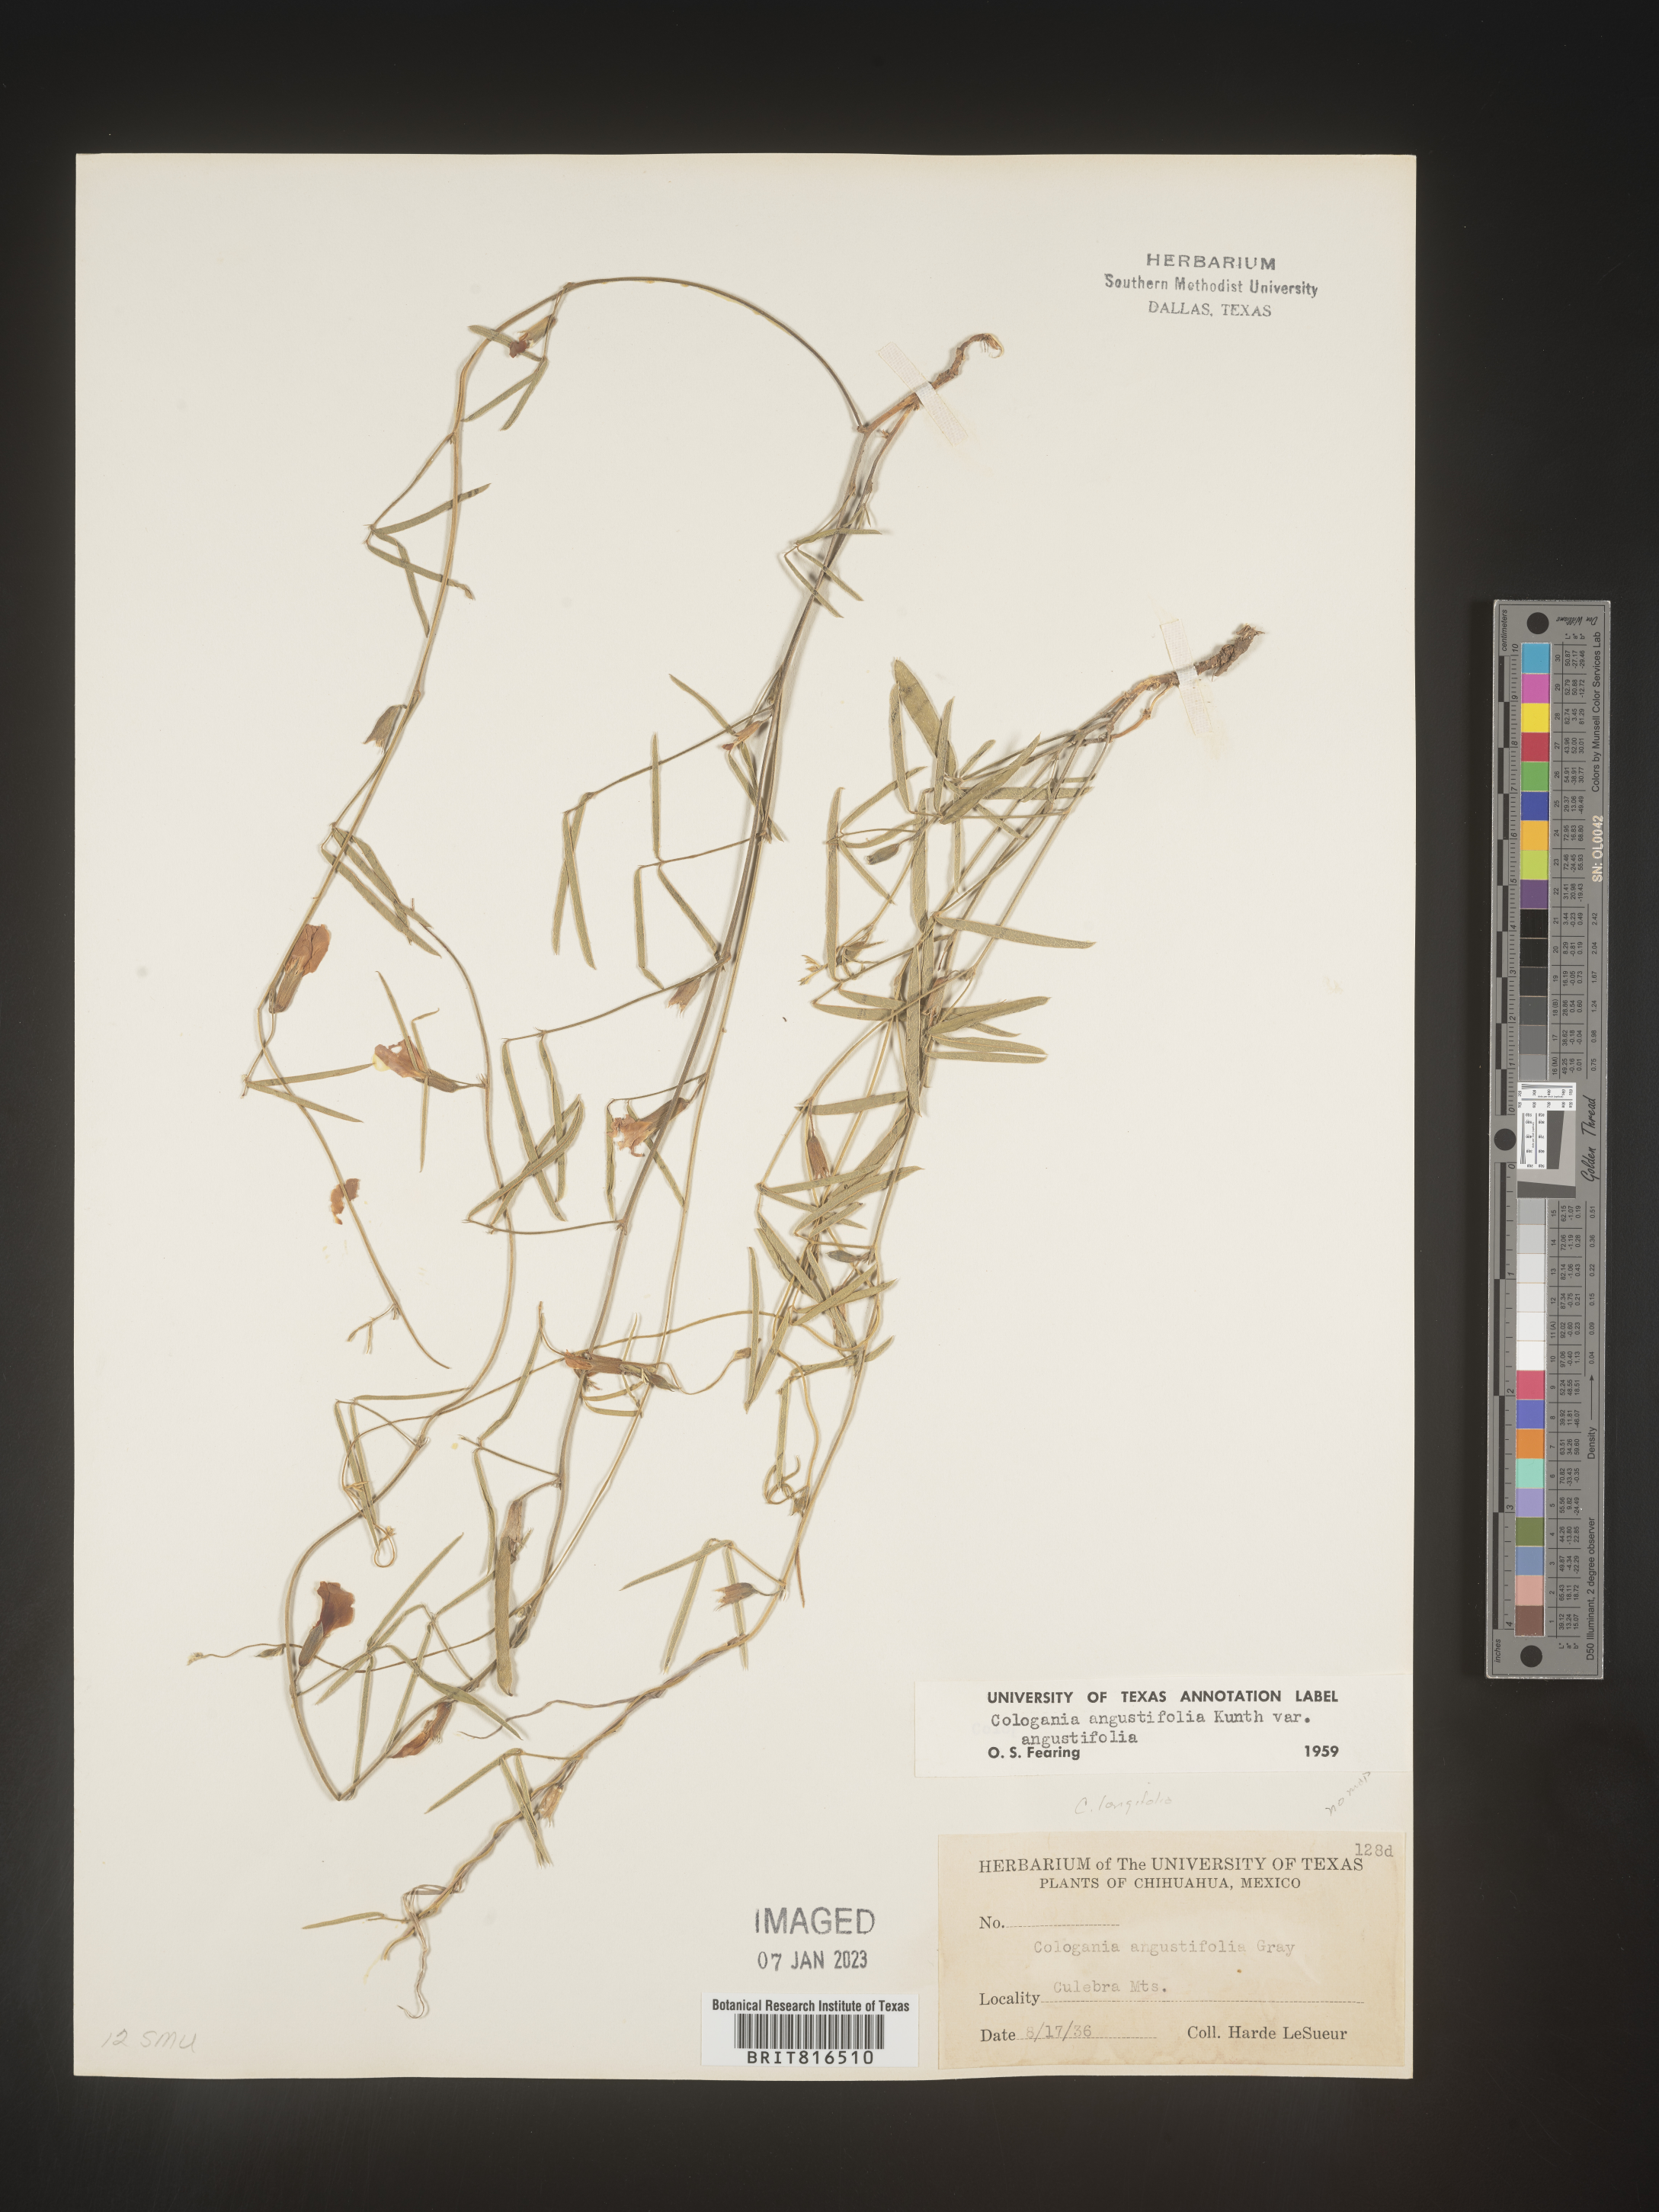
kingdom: Plantae
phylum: Tracheophyta
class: Magnoliopsida
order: Fabales
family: Fabaceae
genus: Cologania
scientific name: Cologania angustifolia
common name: Longleaf cologania
